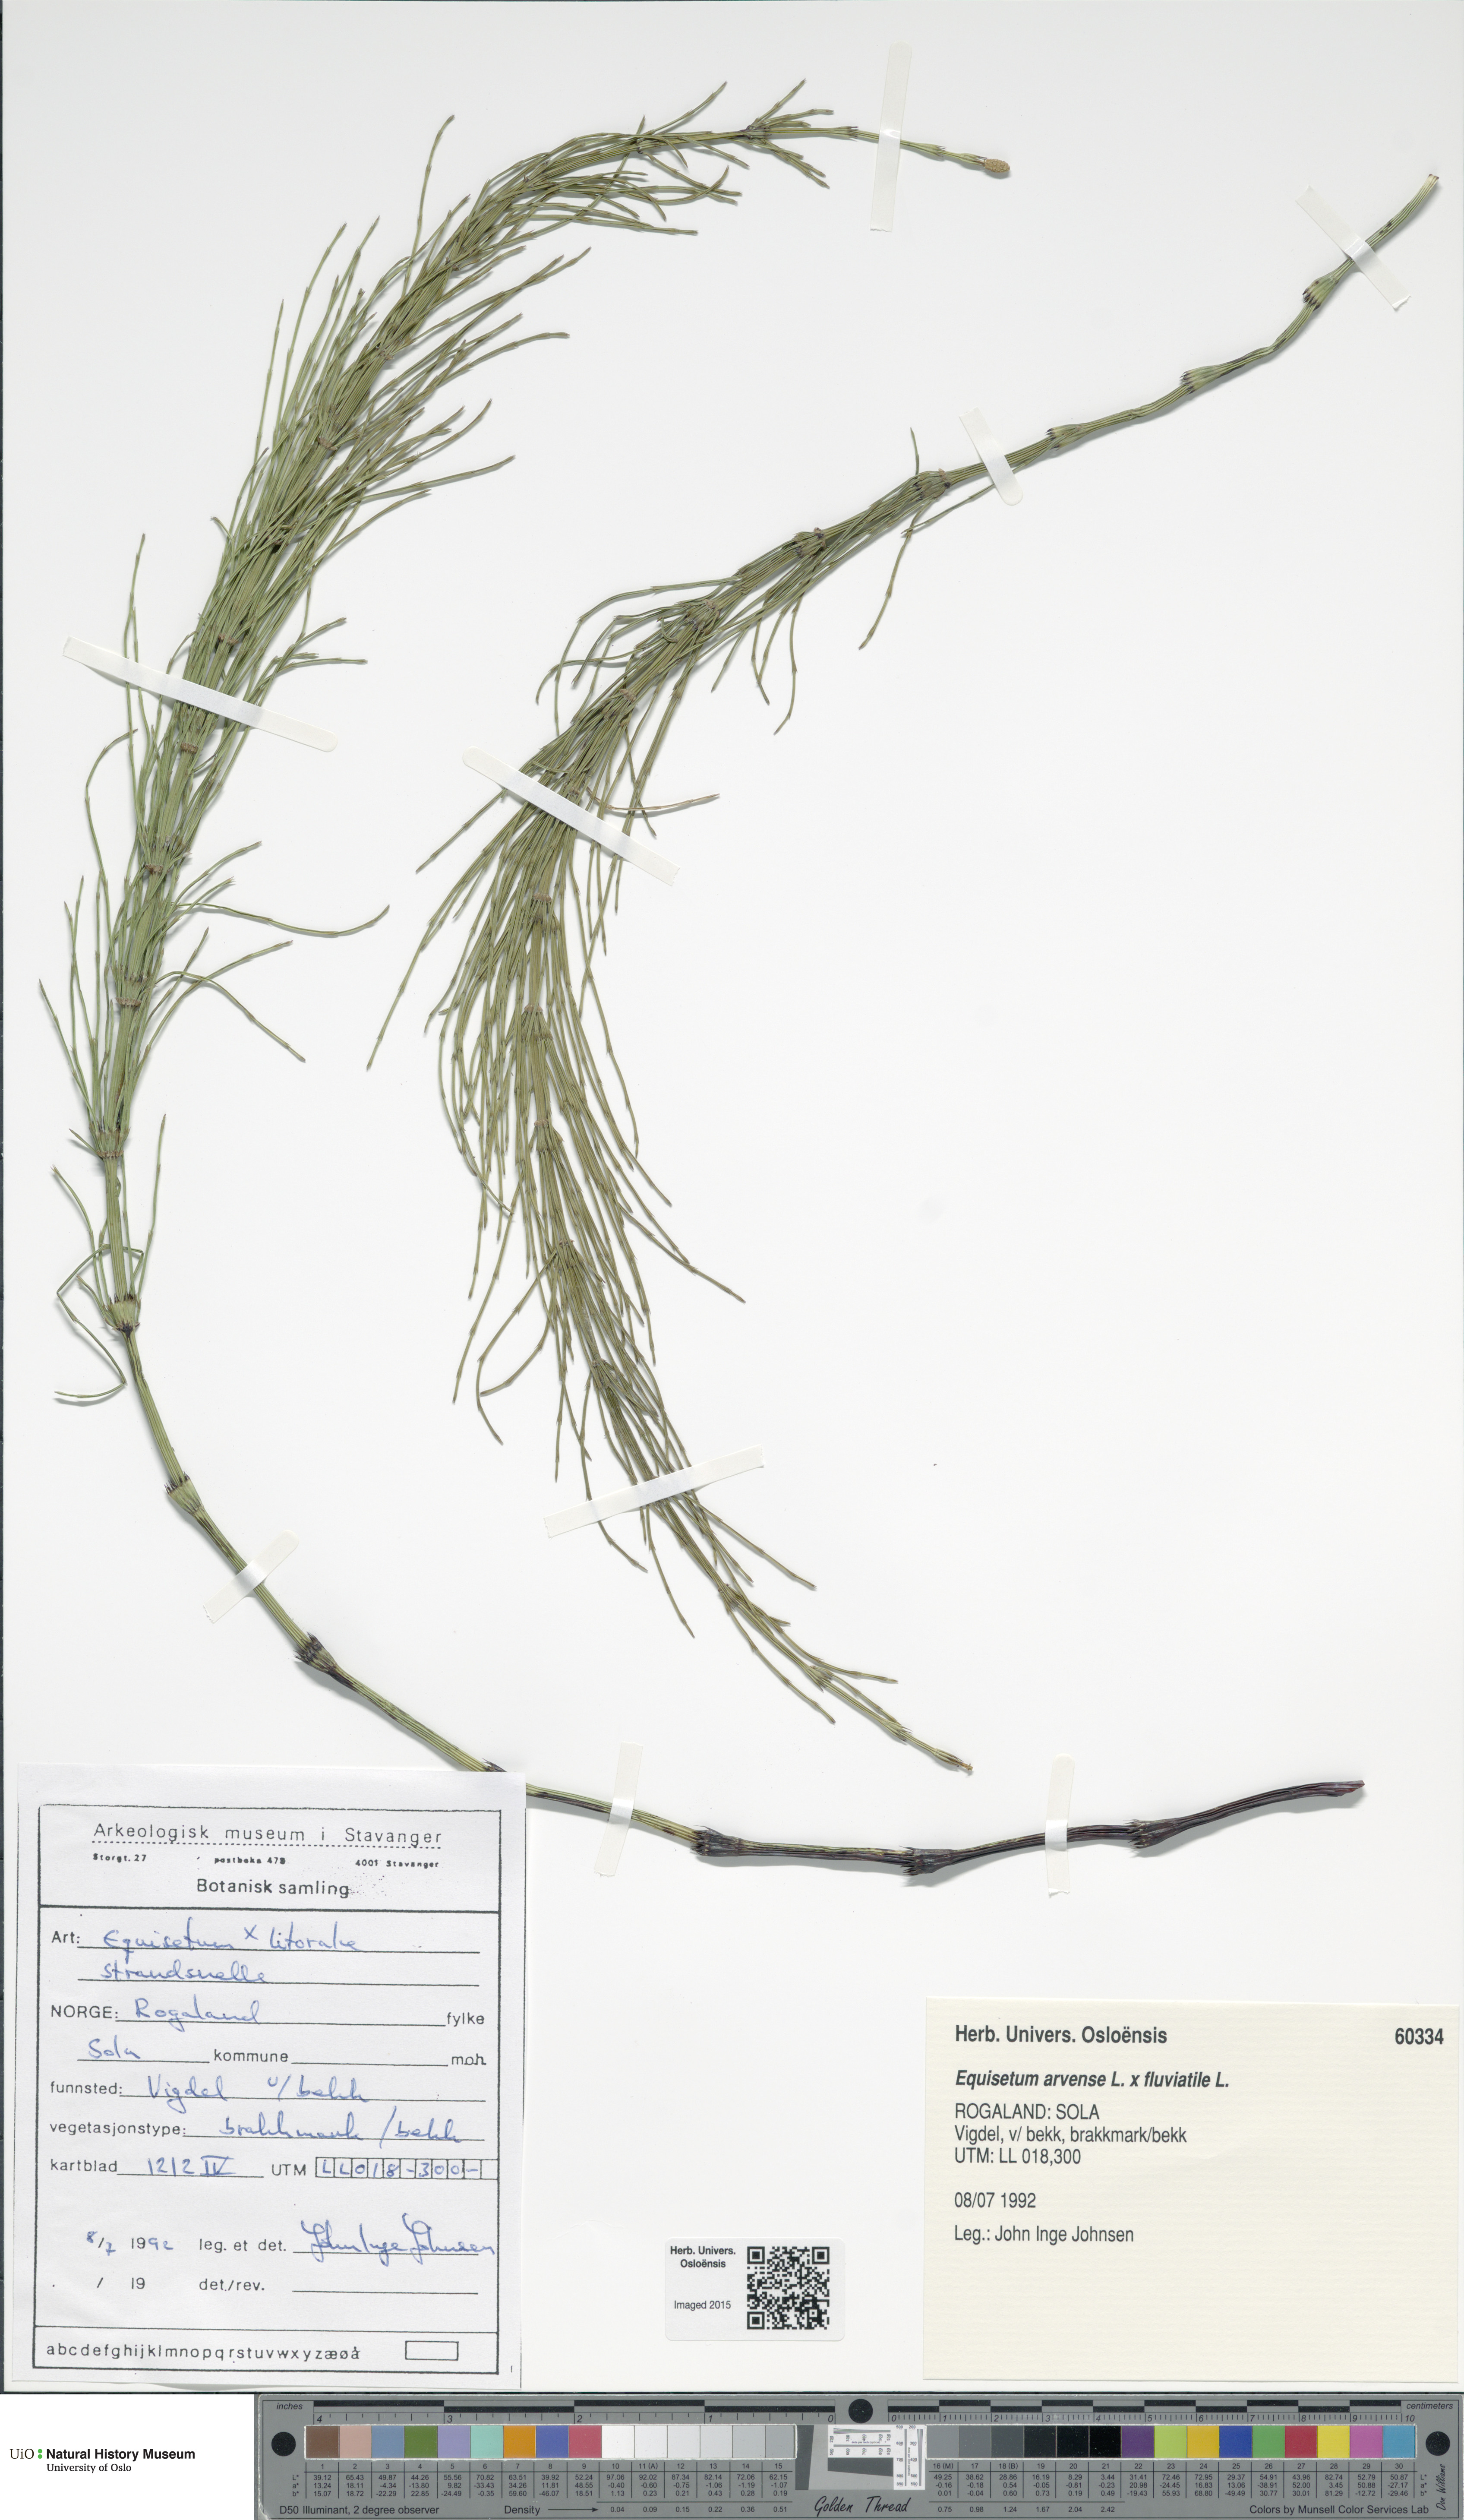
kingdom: Plantae
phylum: Tracheophyta
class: Polypodiopsida
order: Equisetales
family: Equisetaceae
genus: Equisetum
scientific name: Equisetum
